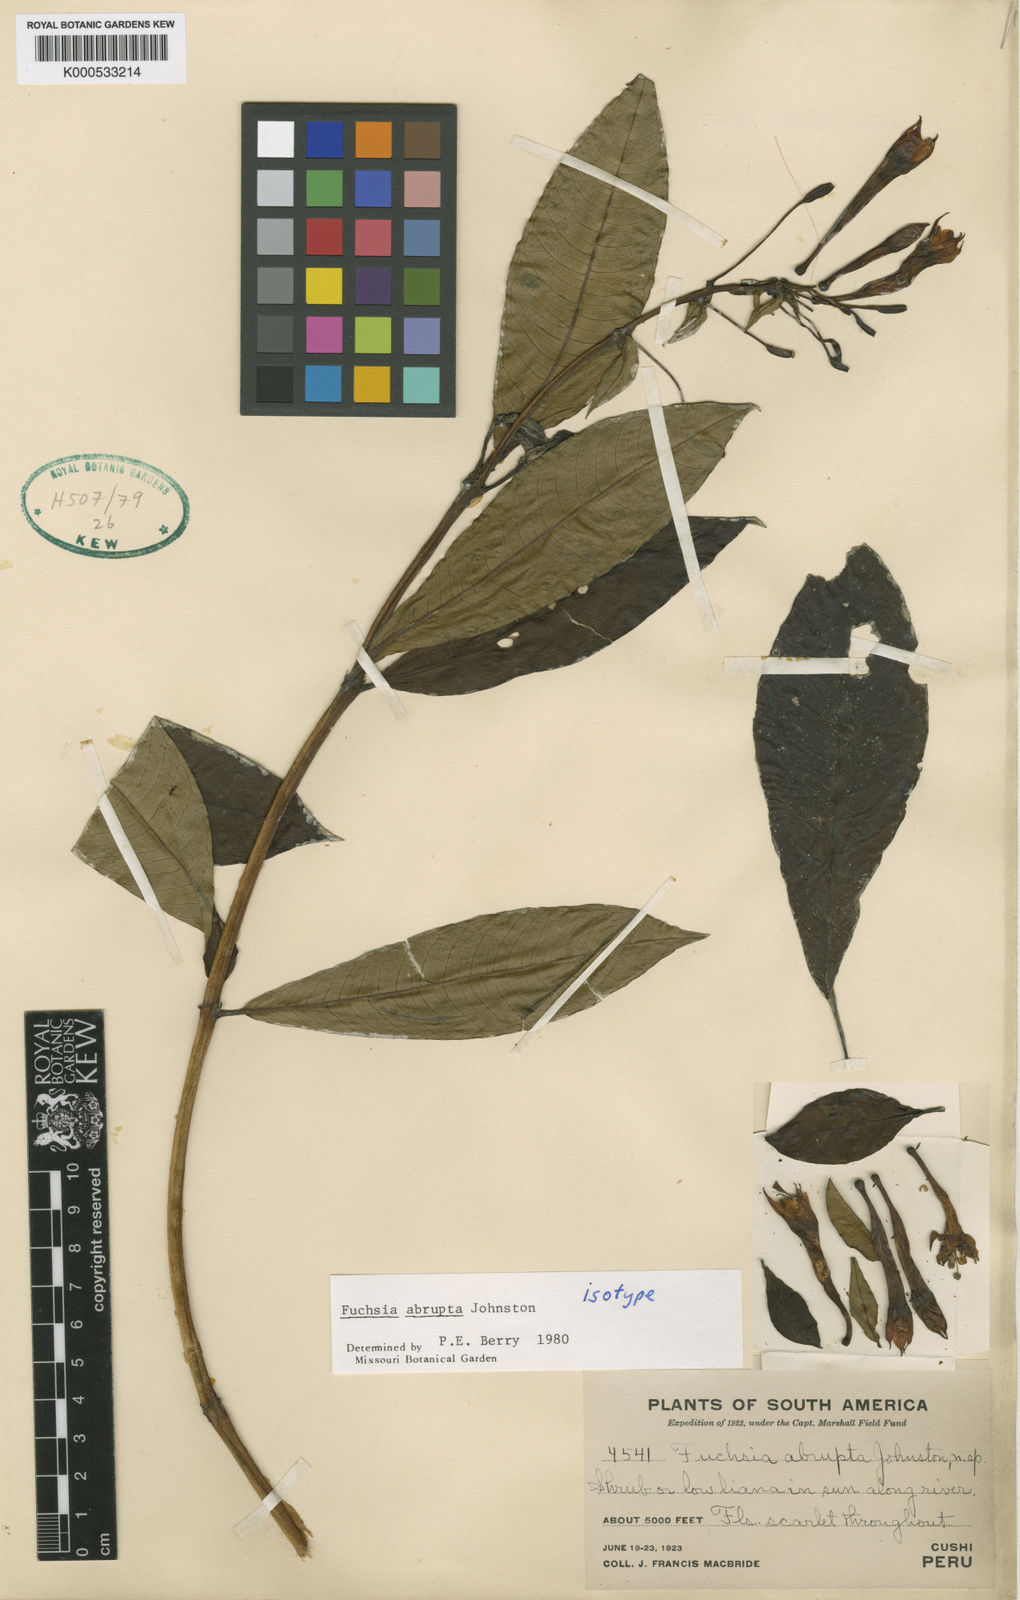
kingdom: Plantae
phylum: Tracheophyta
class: Magnoliopsida
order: Myrtales
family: Onagraceae
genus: Fuchsia
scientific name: Fuchsia abrupta
